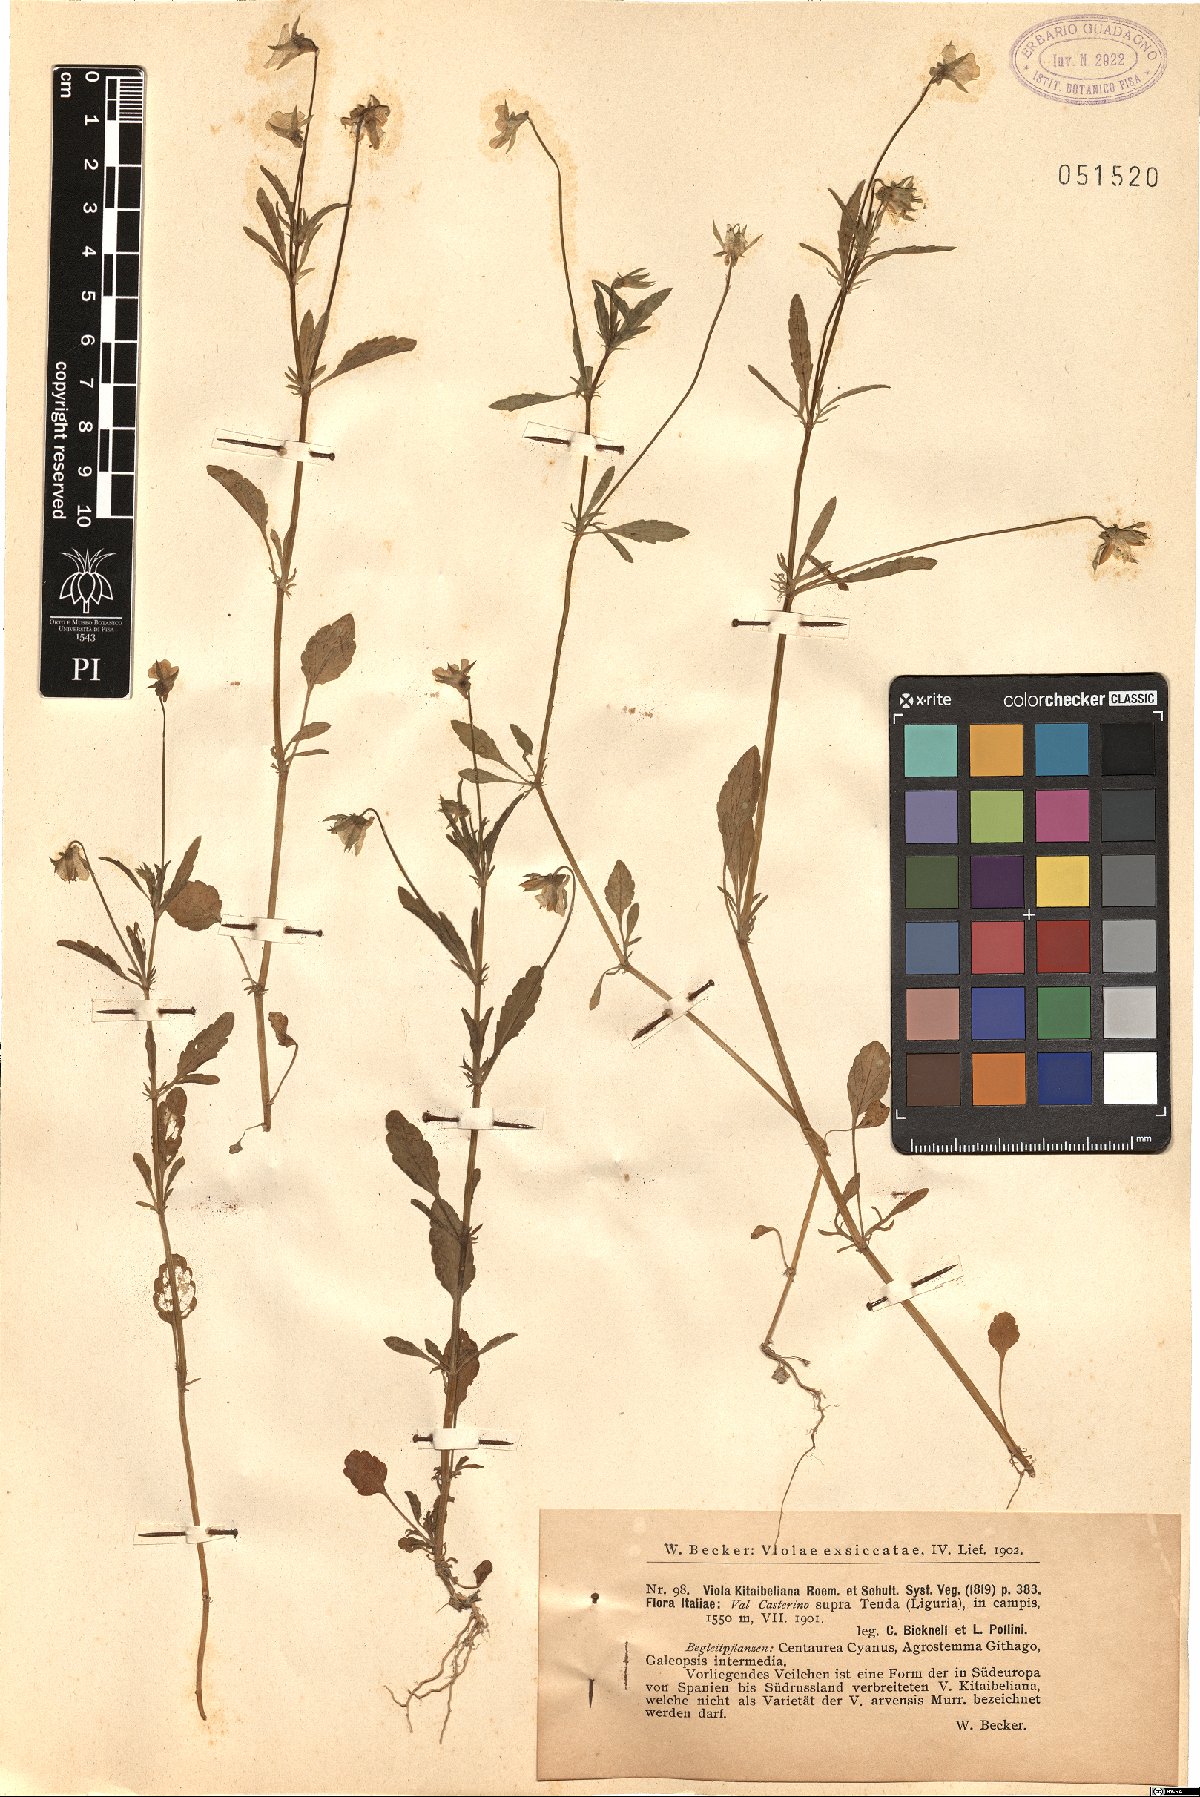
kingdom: Plantae
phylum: Tracheophyta
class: Magnoliopsida
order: Malpighiales
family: Violaceae
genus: Viola
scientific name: Viola kitaibeliana
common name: Dwarf pansy
